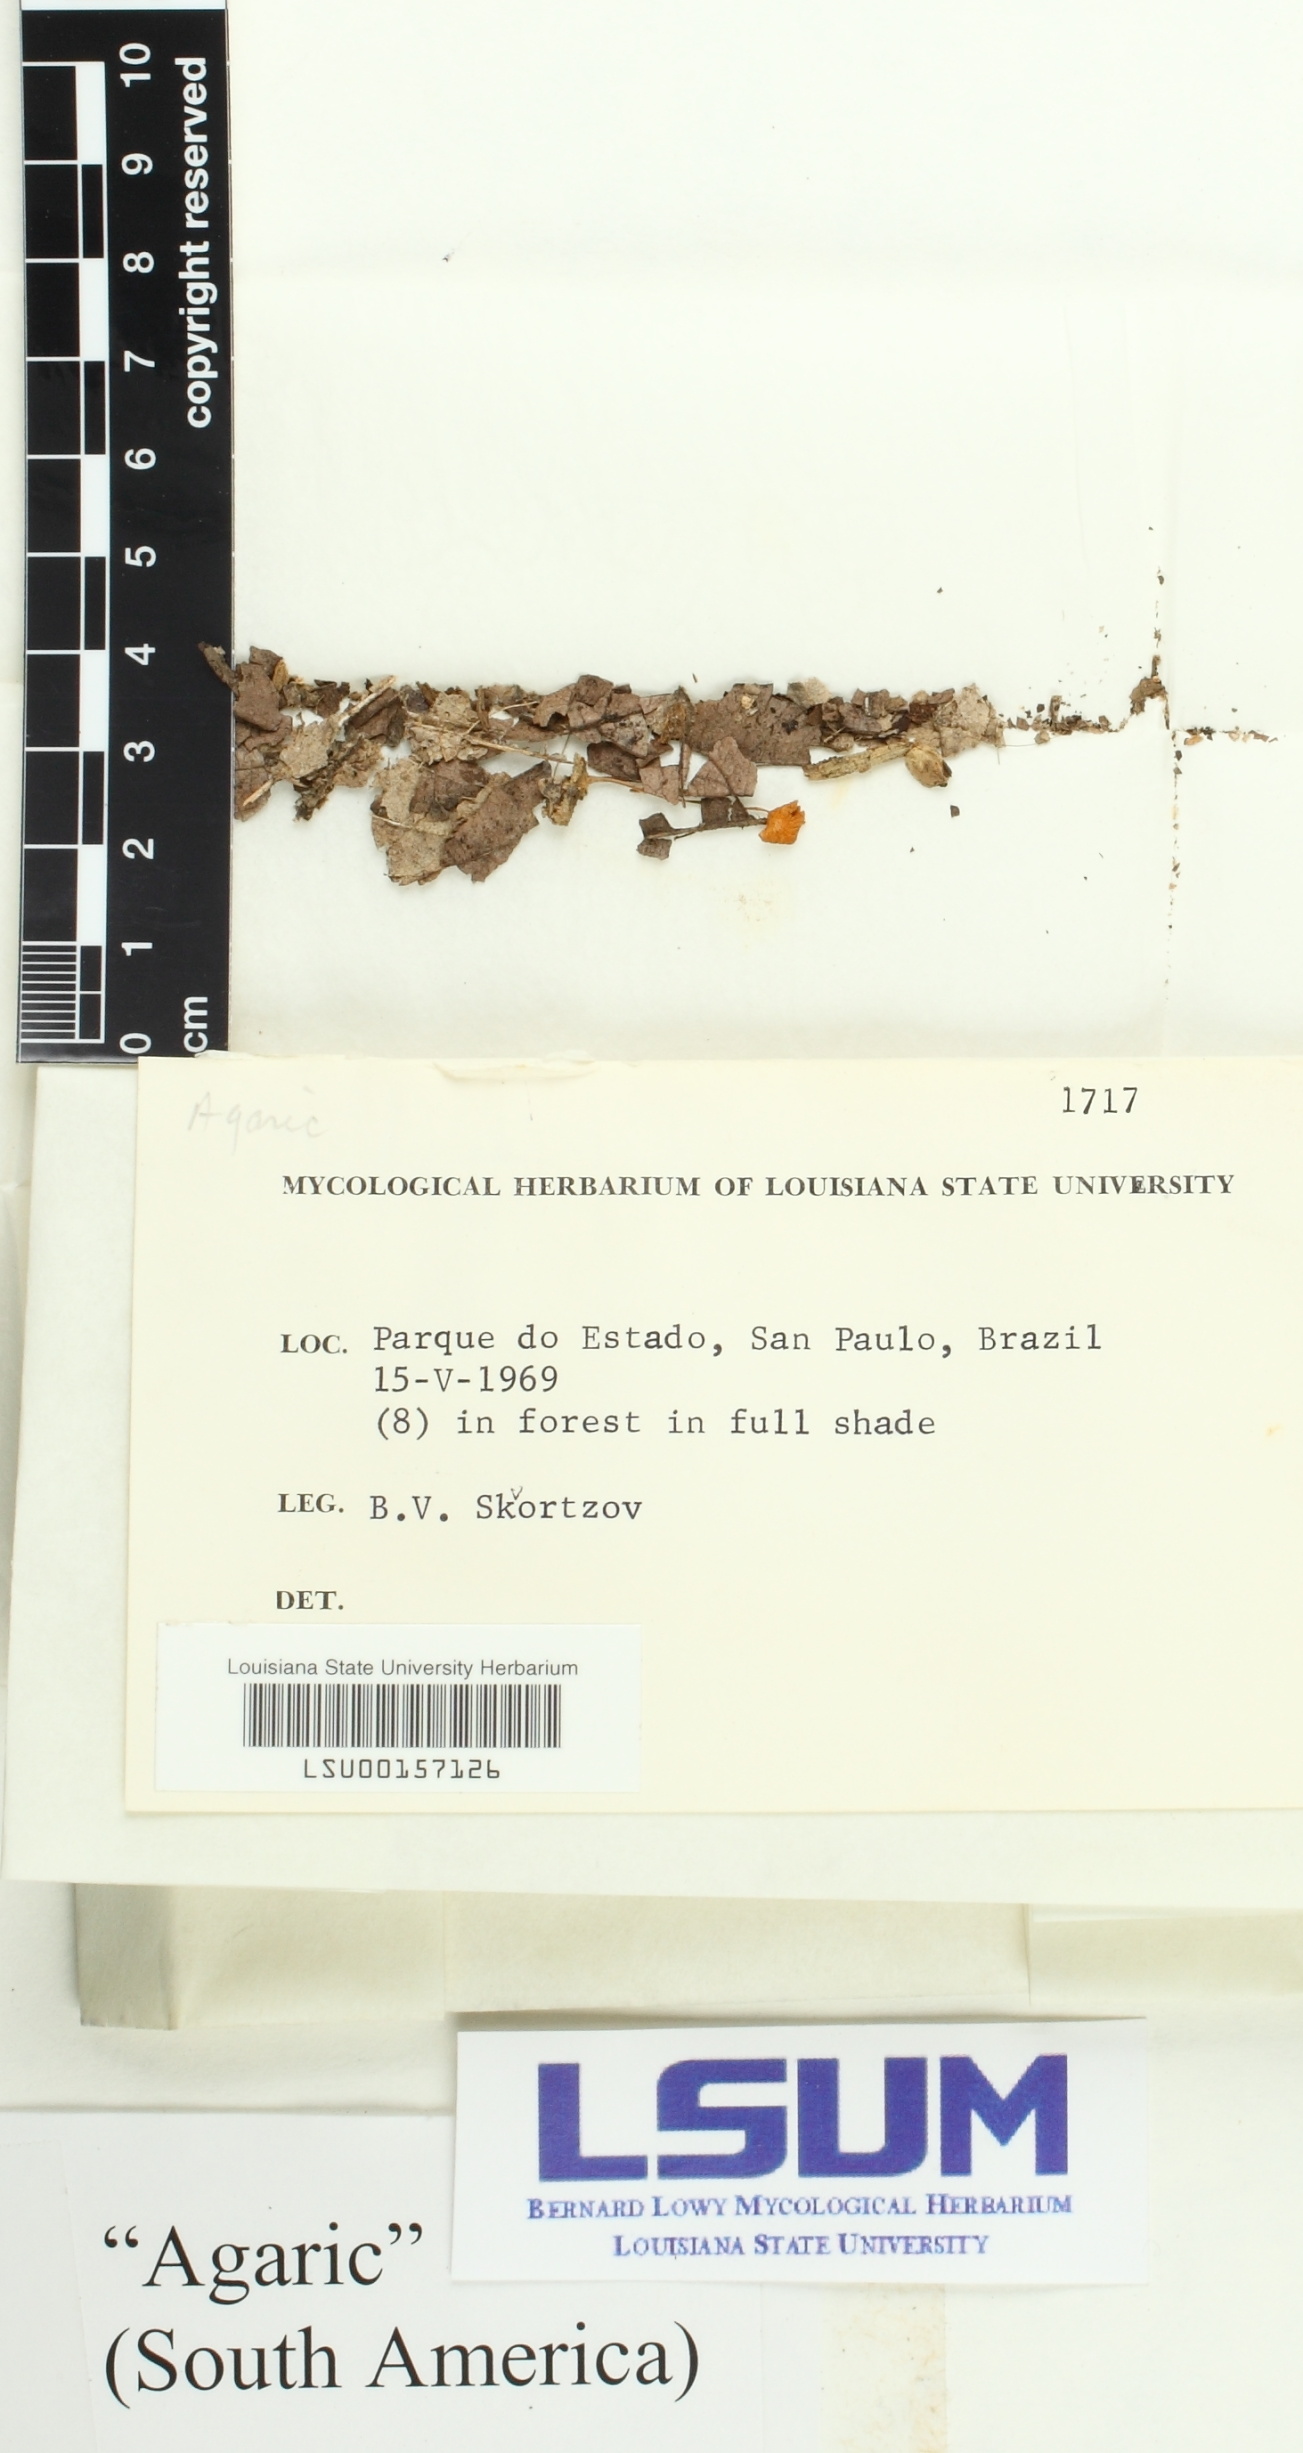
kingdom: Fungi
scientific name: Fungi
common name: Fungi
